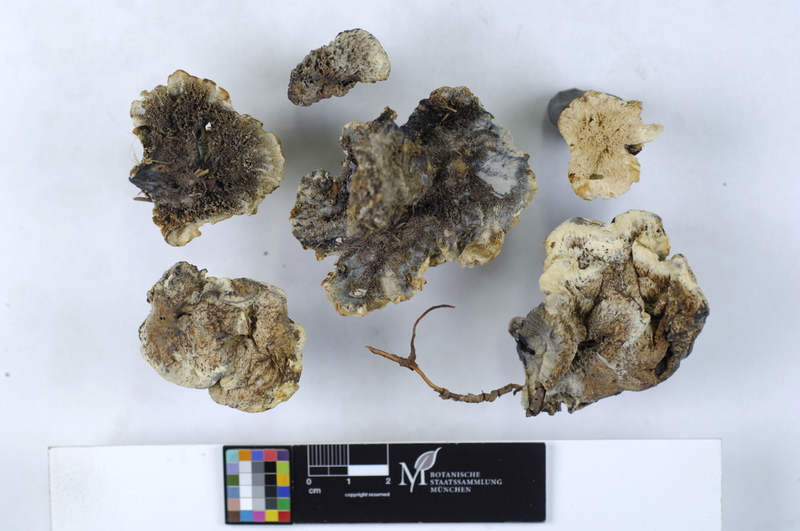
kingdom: Fungi
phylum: Basidiomycota
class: Agaricomycetes
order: Thelephorales
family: Bankeraceae
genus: Hydnellum
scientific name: Hydnellum suaveolens
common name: Sweetgrass hydnellum
